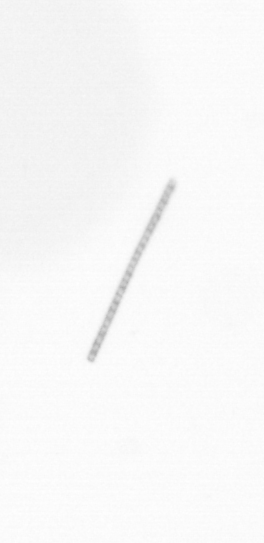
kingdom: Chromista
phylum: Ochrophyta
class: Bacillariophyceae
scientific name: Bacillariophyceae
